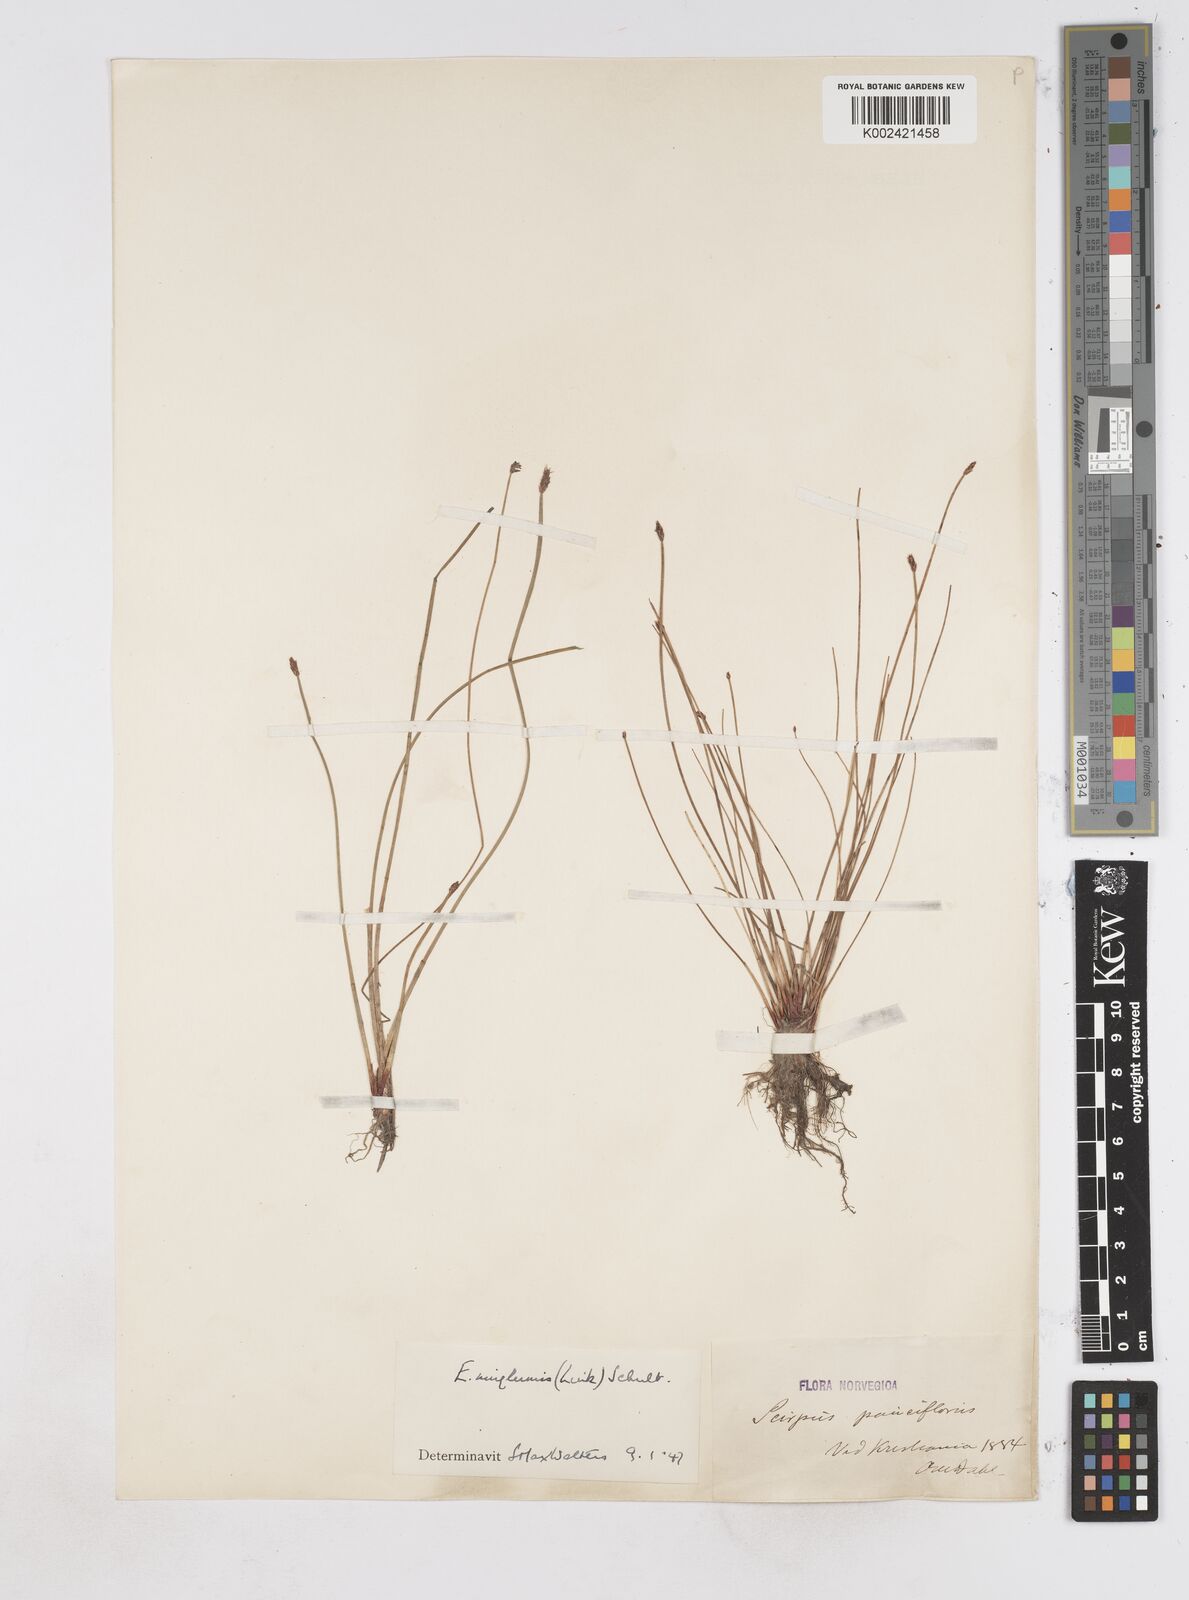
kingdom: Plantae
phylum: Tracheophyta
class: Liliopsida
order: Poales
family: Cyperaceae
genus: Eleocharis
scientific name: Eleocharis uniglumis
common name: Slender spike-rush
